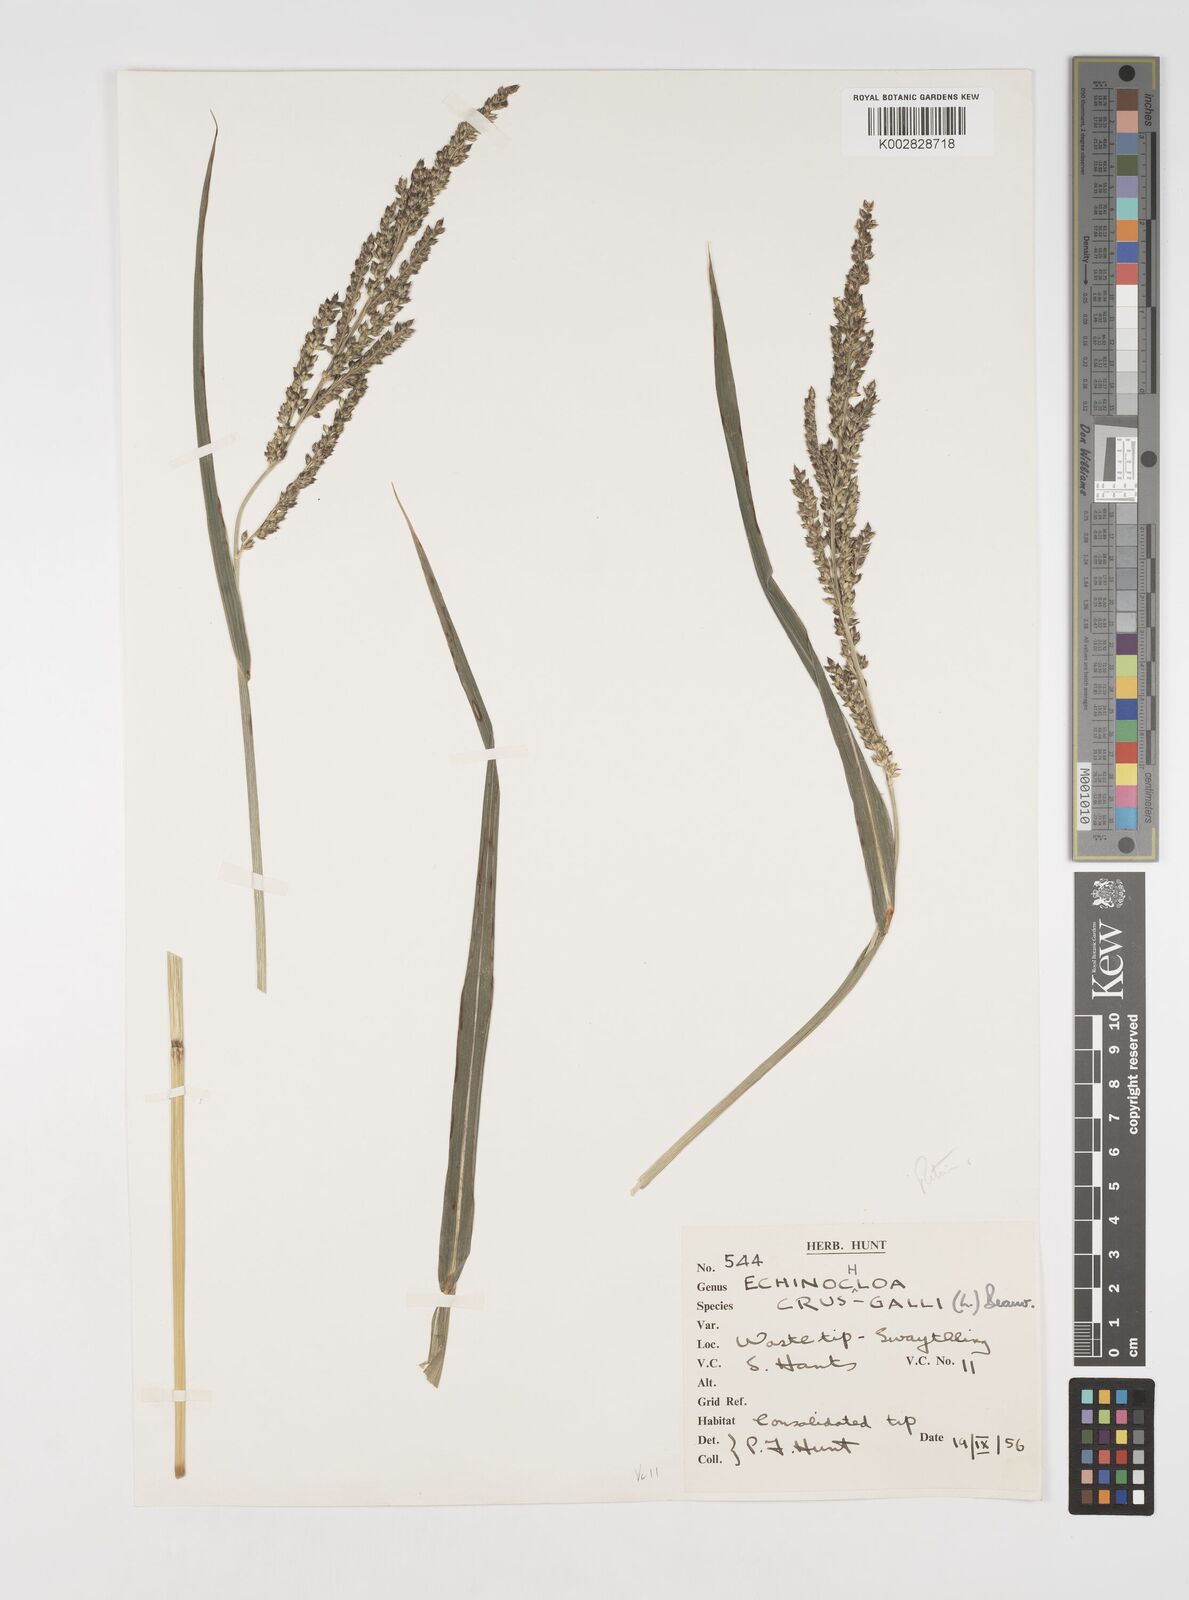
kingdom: Plantae
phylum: Tracheophyta
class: Liliopsida
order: Poales
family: Poaceae
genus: Echinochloa
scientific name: Echinochloa crus-galli
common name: Cockspur
